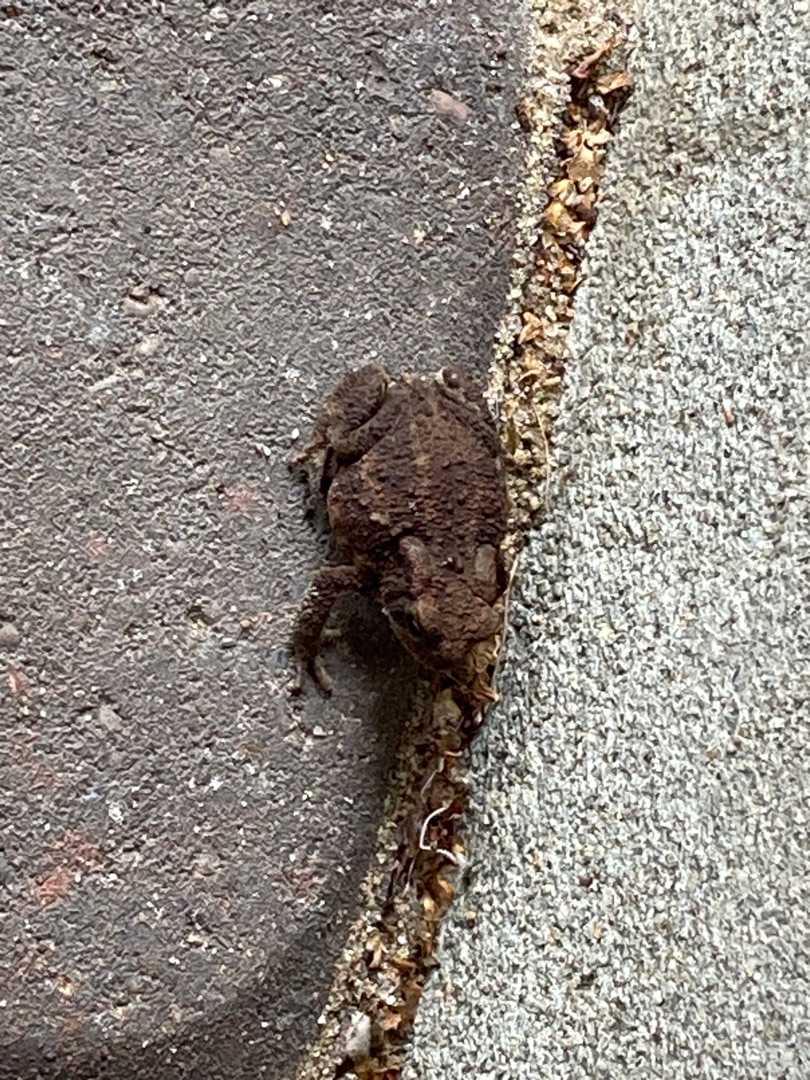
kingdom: Animalia
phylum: Chordata
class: Amphibia
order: Anura
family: Bufonidae
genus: Bufo
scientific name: Bufo bufo
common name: Skrubtudse
